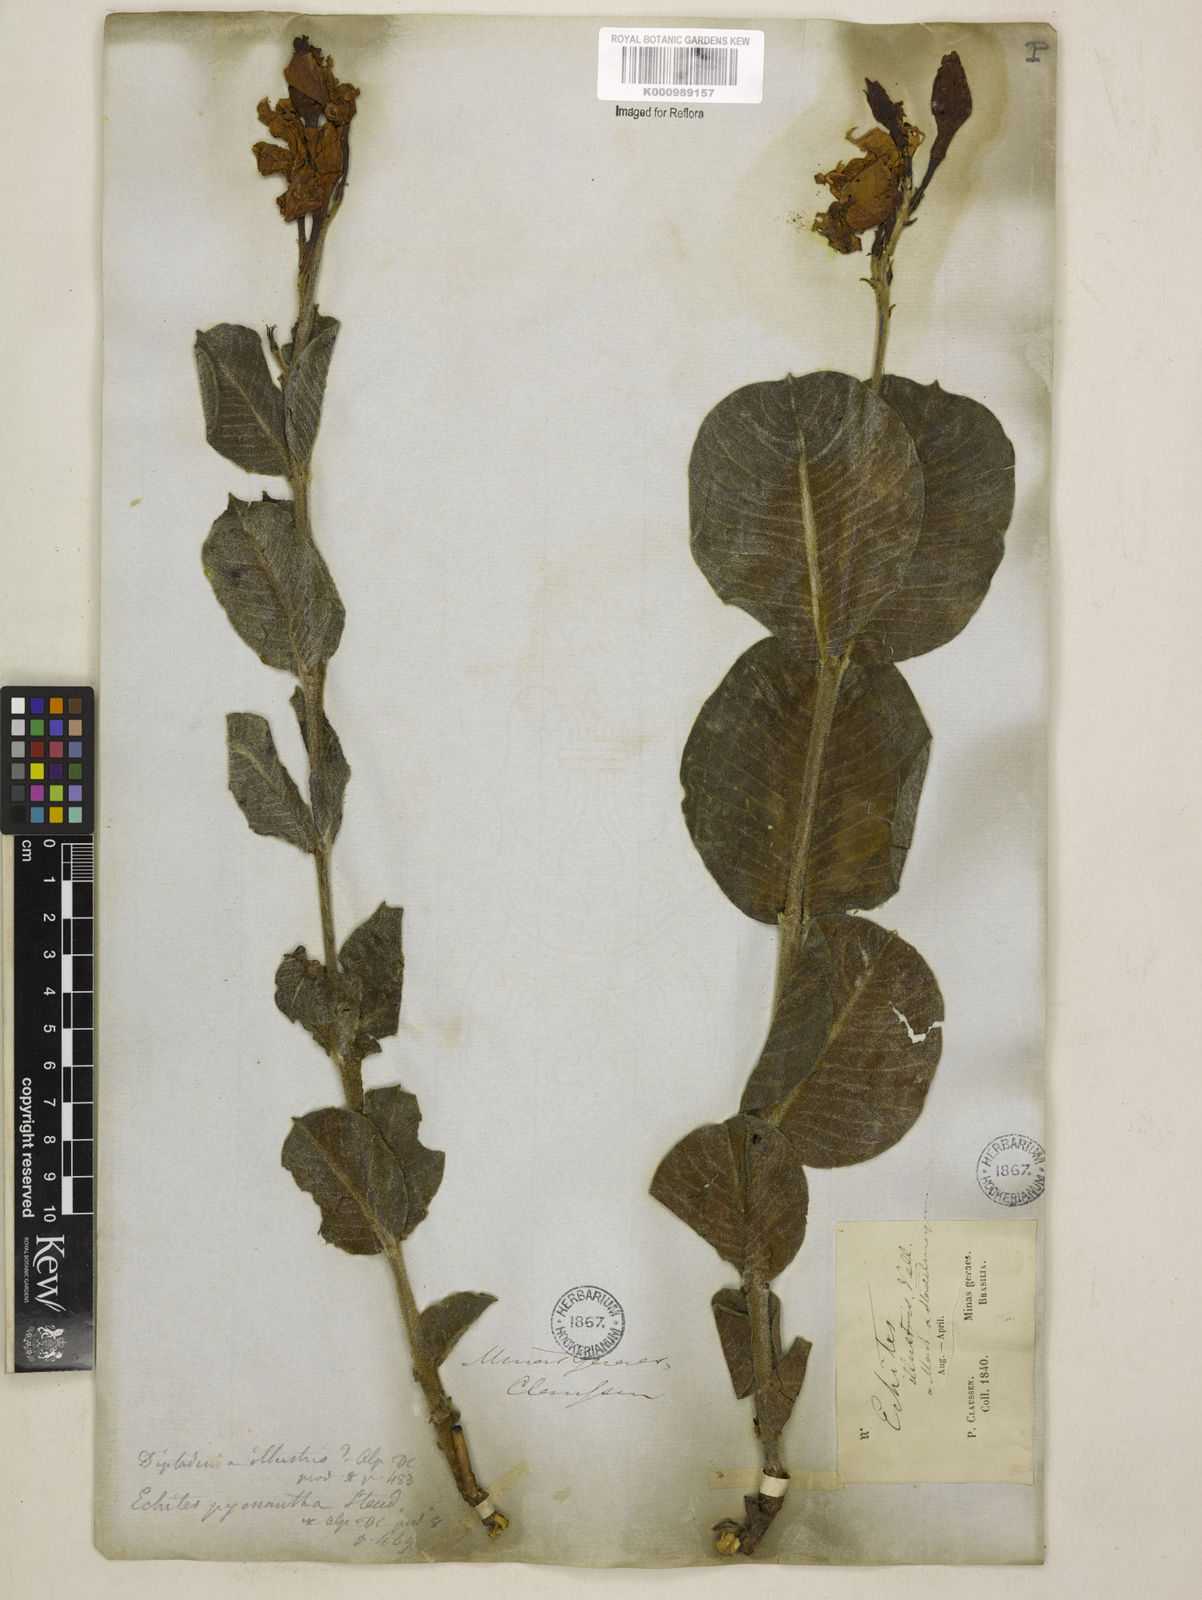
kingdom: Plantae
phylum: Tracheophyta
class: Magnoliopsida
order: Gentianales
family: Apocynaceae
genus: Mandevilla
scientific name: Mandevilla illustris
